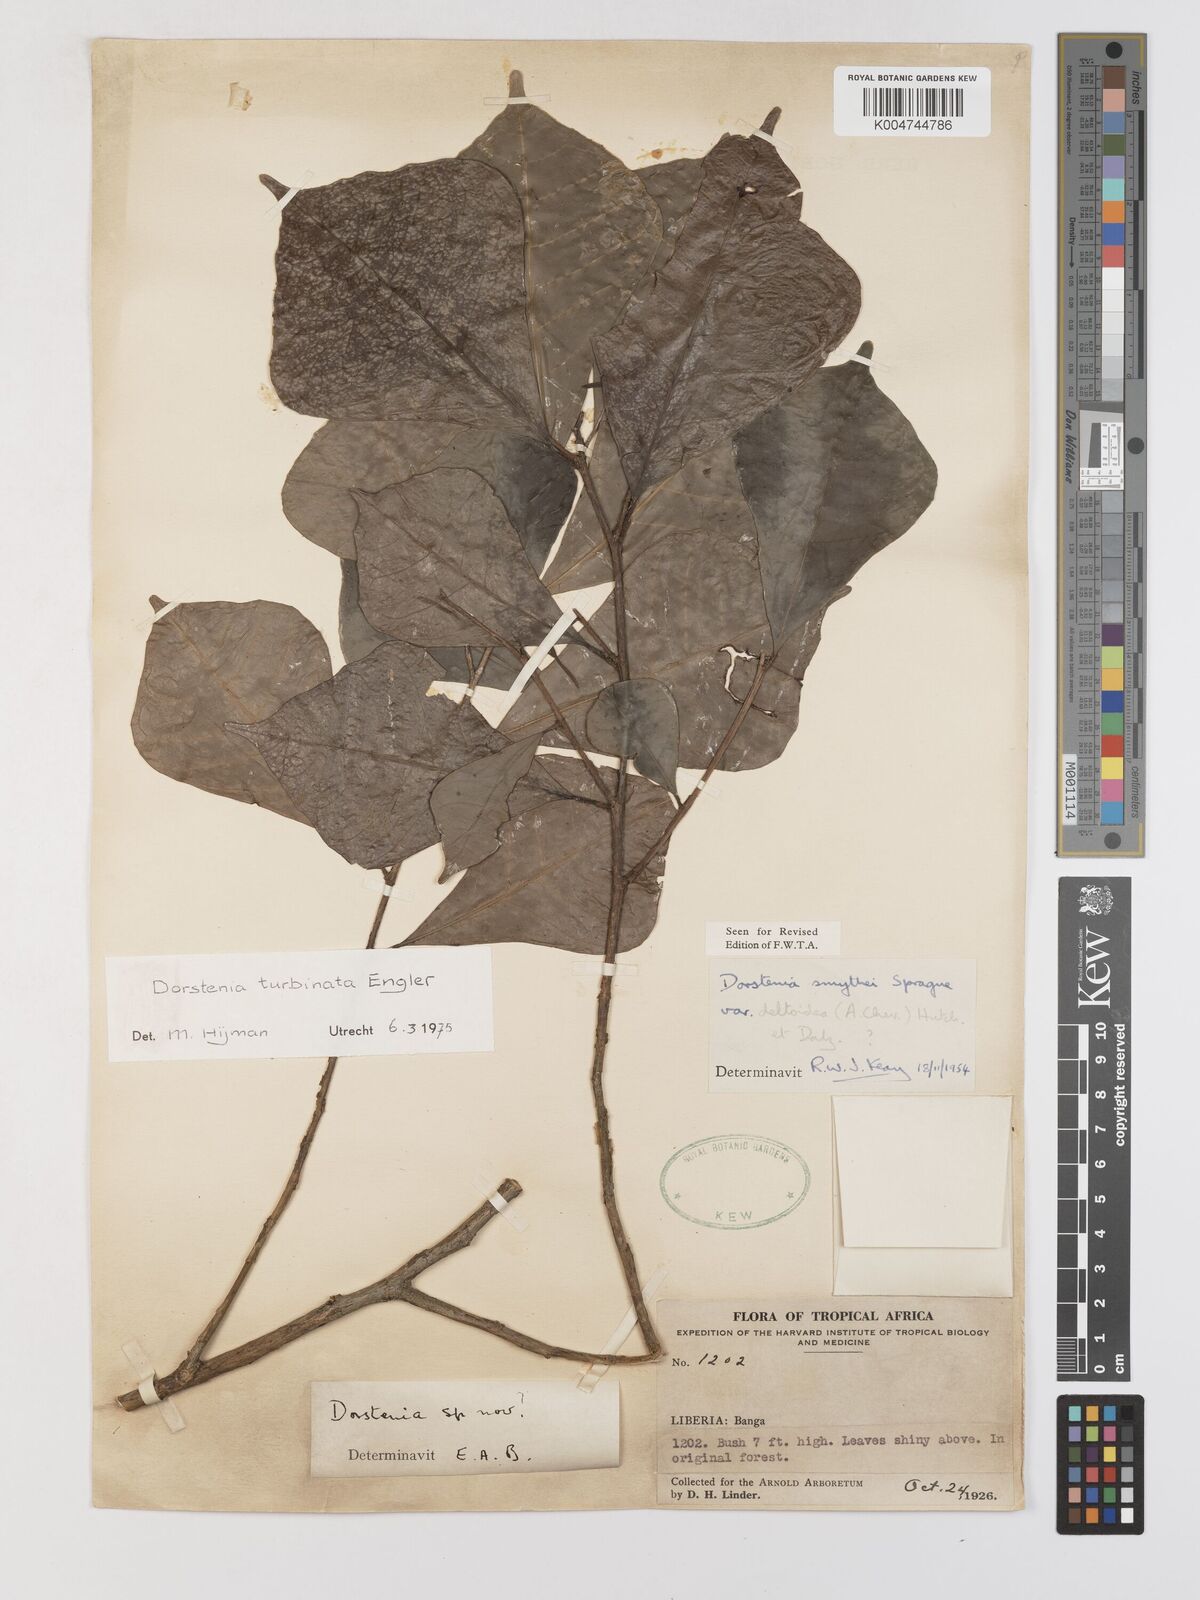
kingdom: Plantae
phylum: Tracheophyta
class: Magnoliopsida
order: Rosales
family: Moraceae
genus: Hijmania
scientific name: Hijmania turbinata
